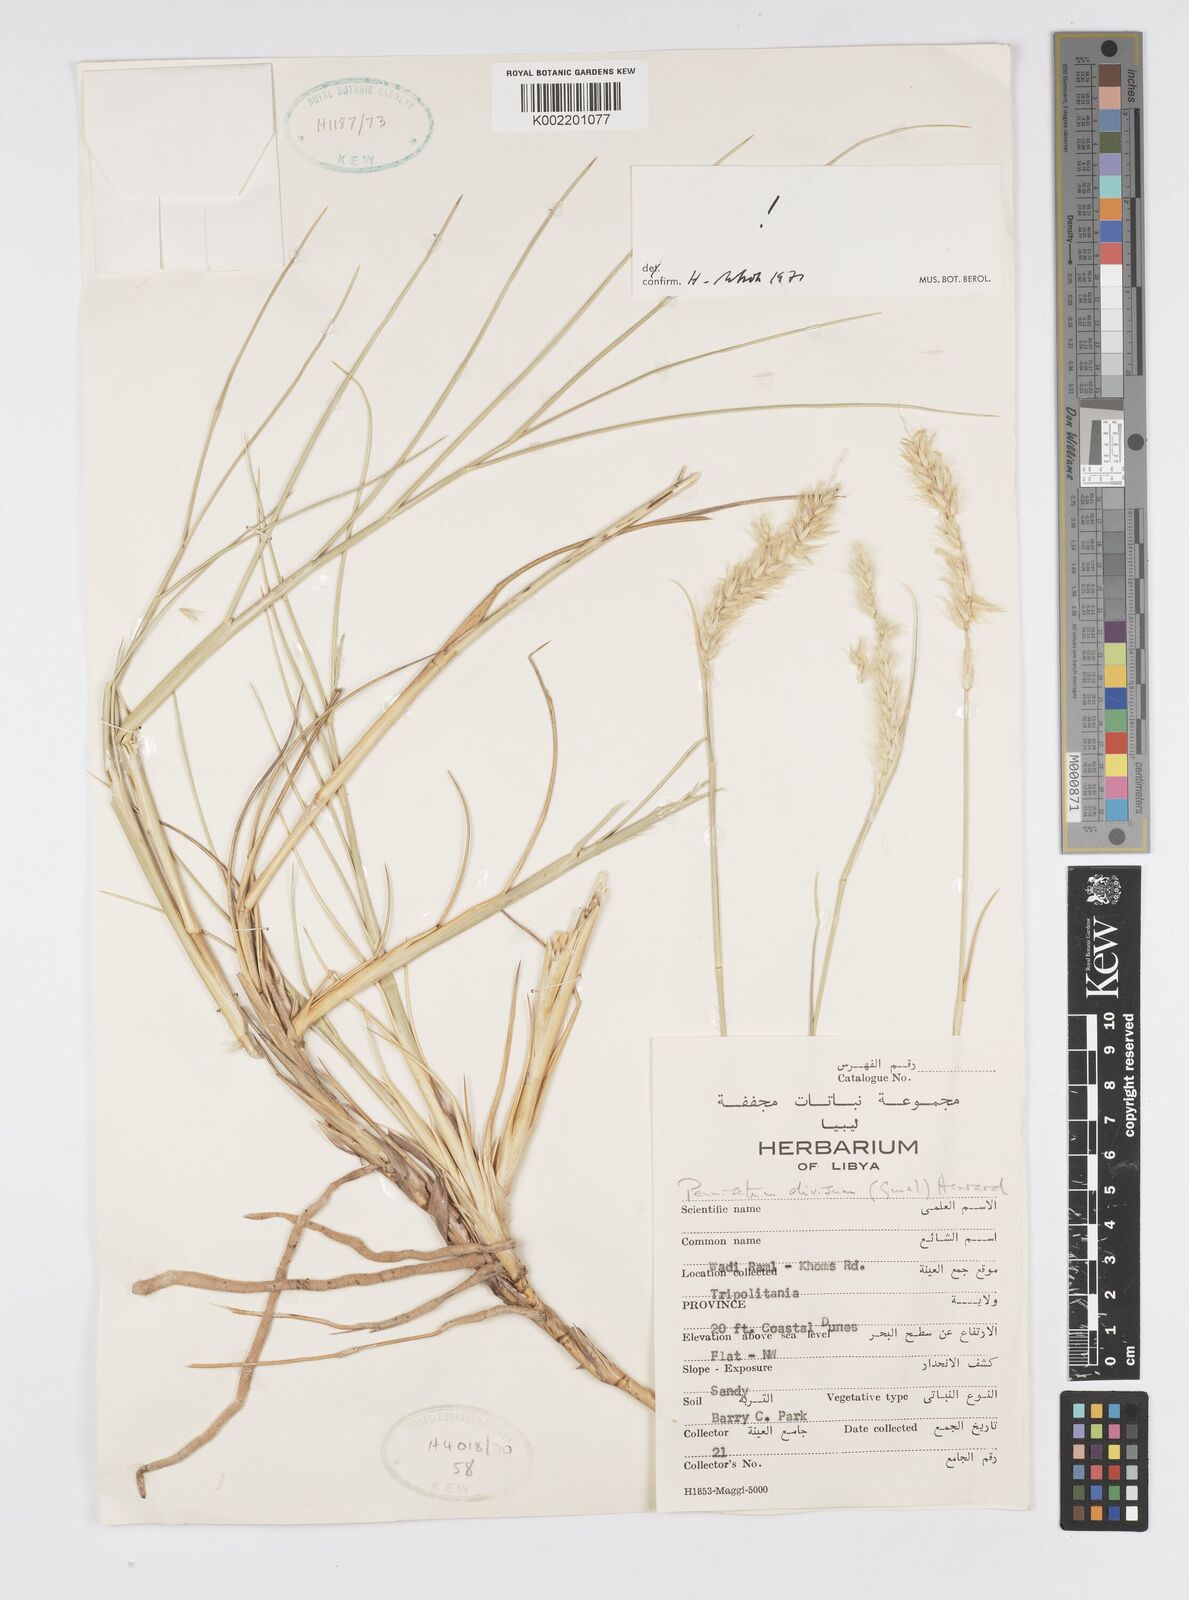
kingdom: Plantae
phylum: Tracheophyta
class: Liliopsida
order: Poales
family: Poaceae
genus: Cenchrus
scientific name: Cenchrus divisus
